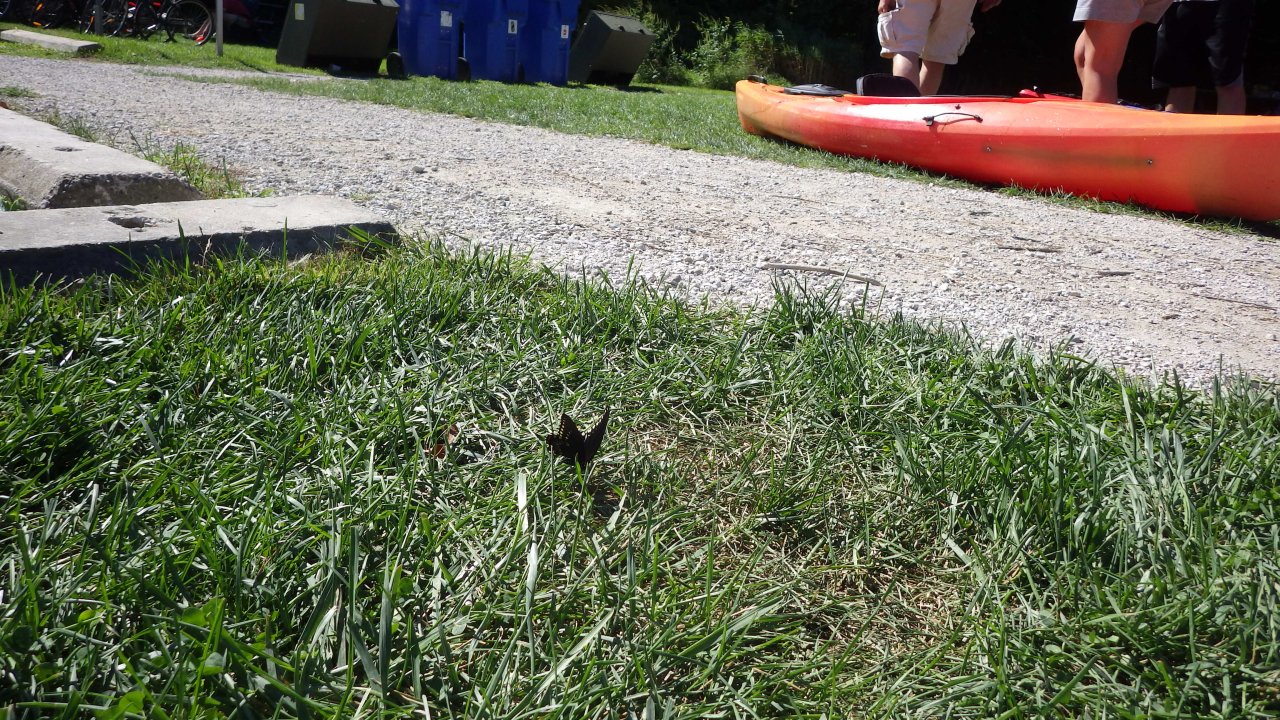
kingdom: Animalia
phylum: Arthropoda
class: Insecta
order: Lepidoptera
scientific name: Lepidoptera
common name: Butterflies
